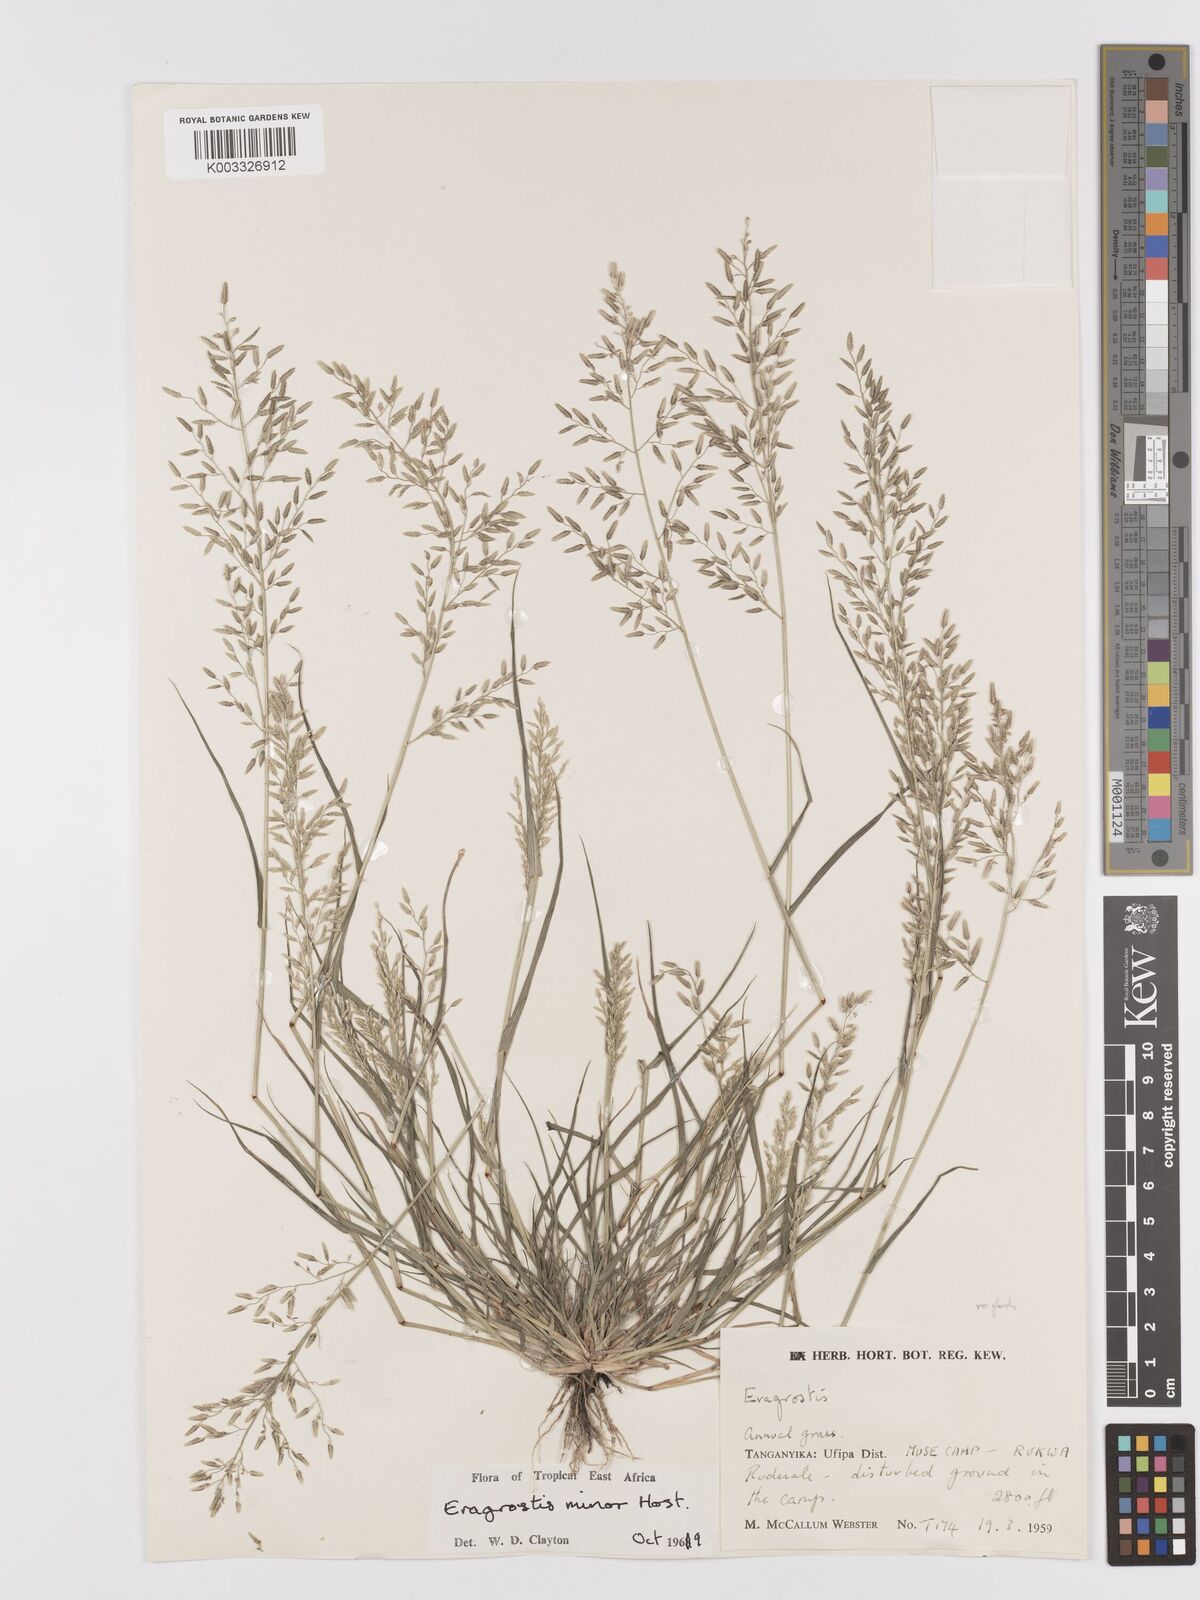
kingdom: Plantae
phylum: Tracheophyta
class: Liliopsida
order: Poales
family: Poaceae
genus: Eragrostis
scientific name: Eragrostis minor
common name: Small love-grass
